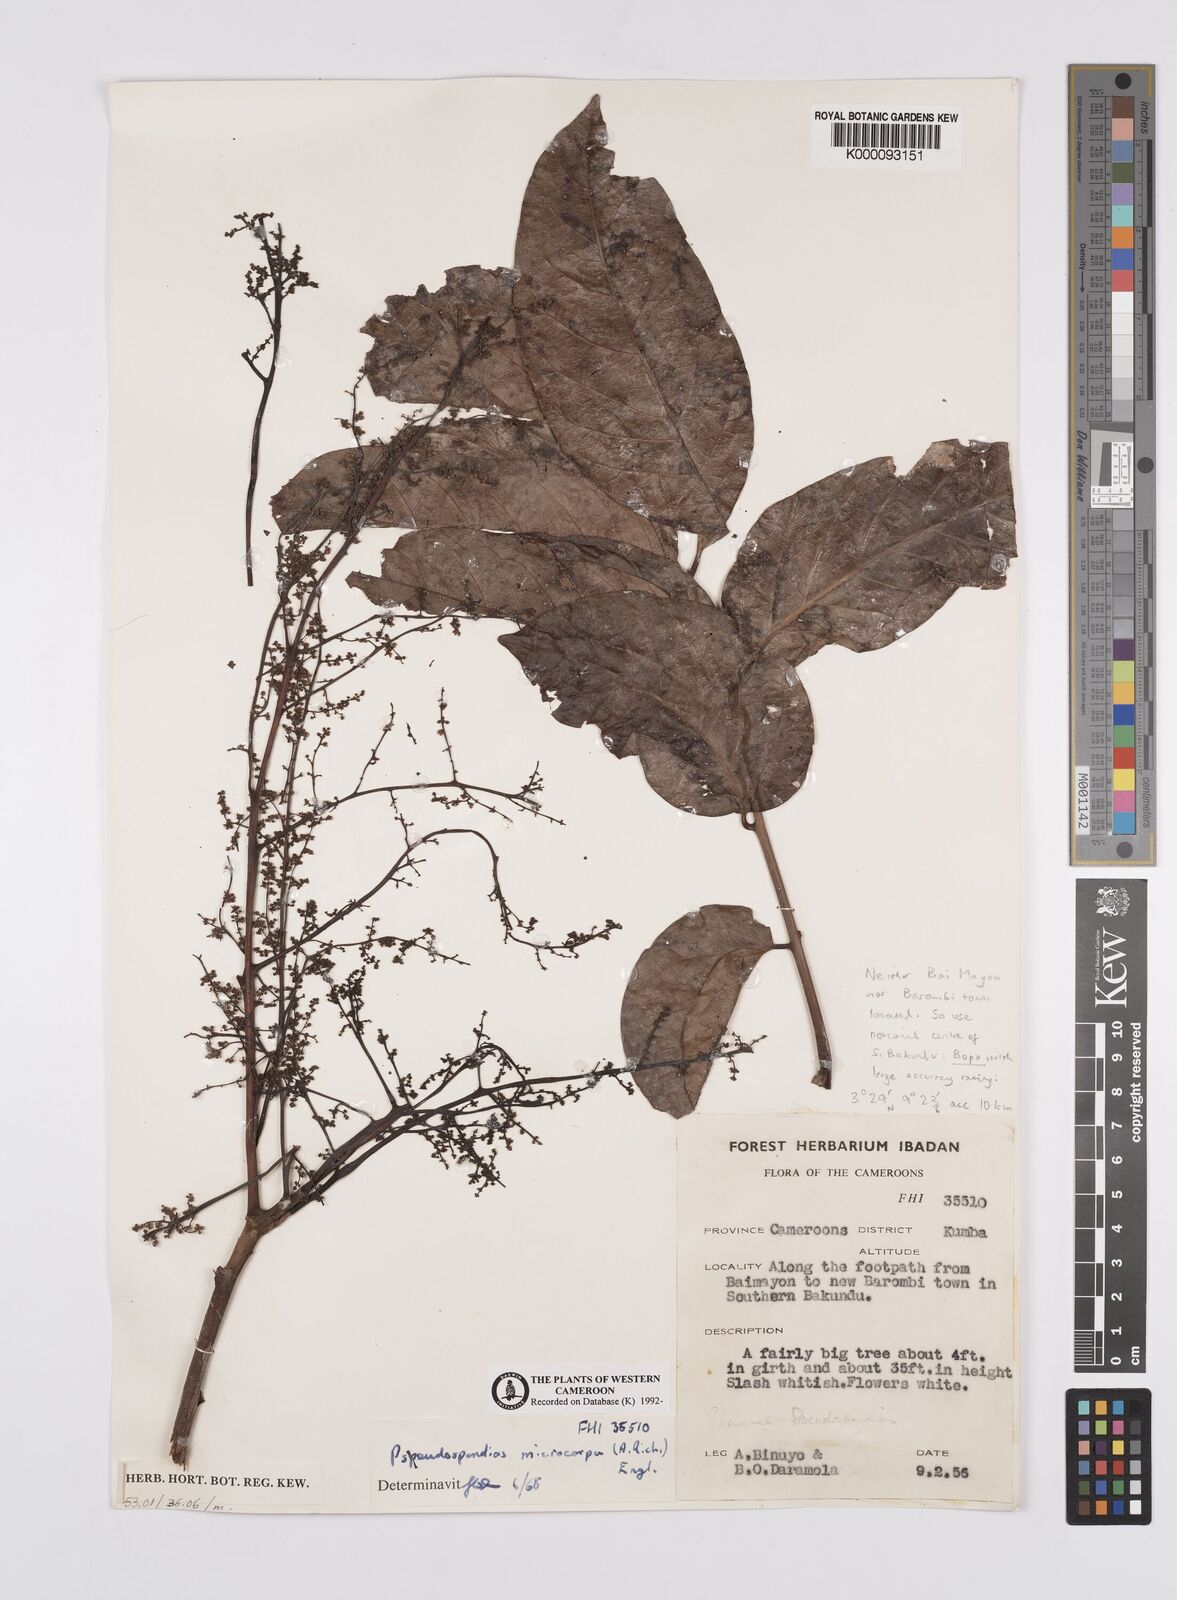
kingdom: Plantae
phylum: Tracheophyta
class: Magnoliopsida
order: Sapindales
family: Anacardiaceae
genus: Pseudospondias
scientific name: Pseudospondias microcarpa
